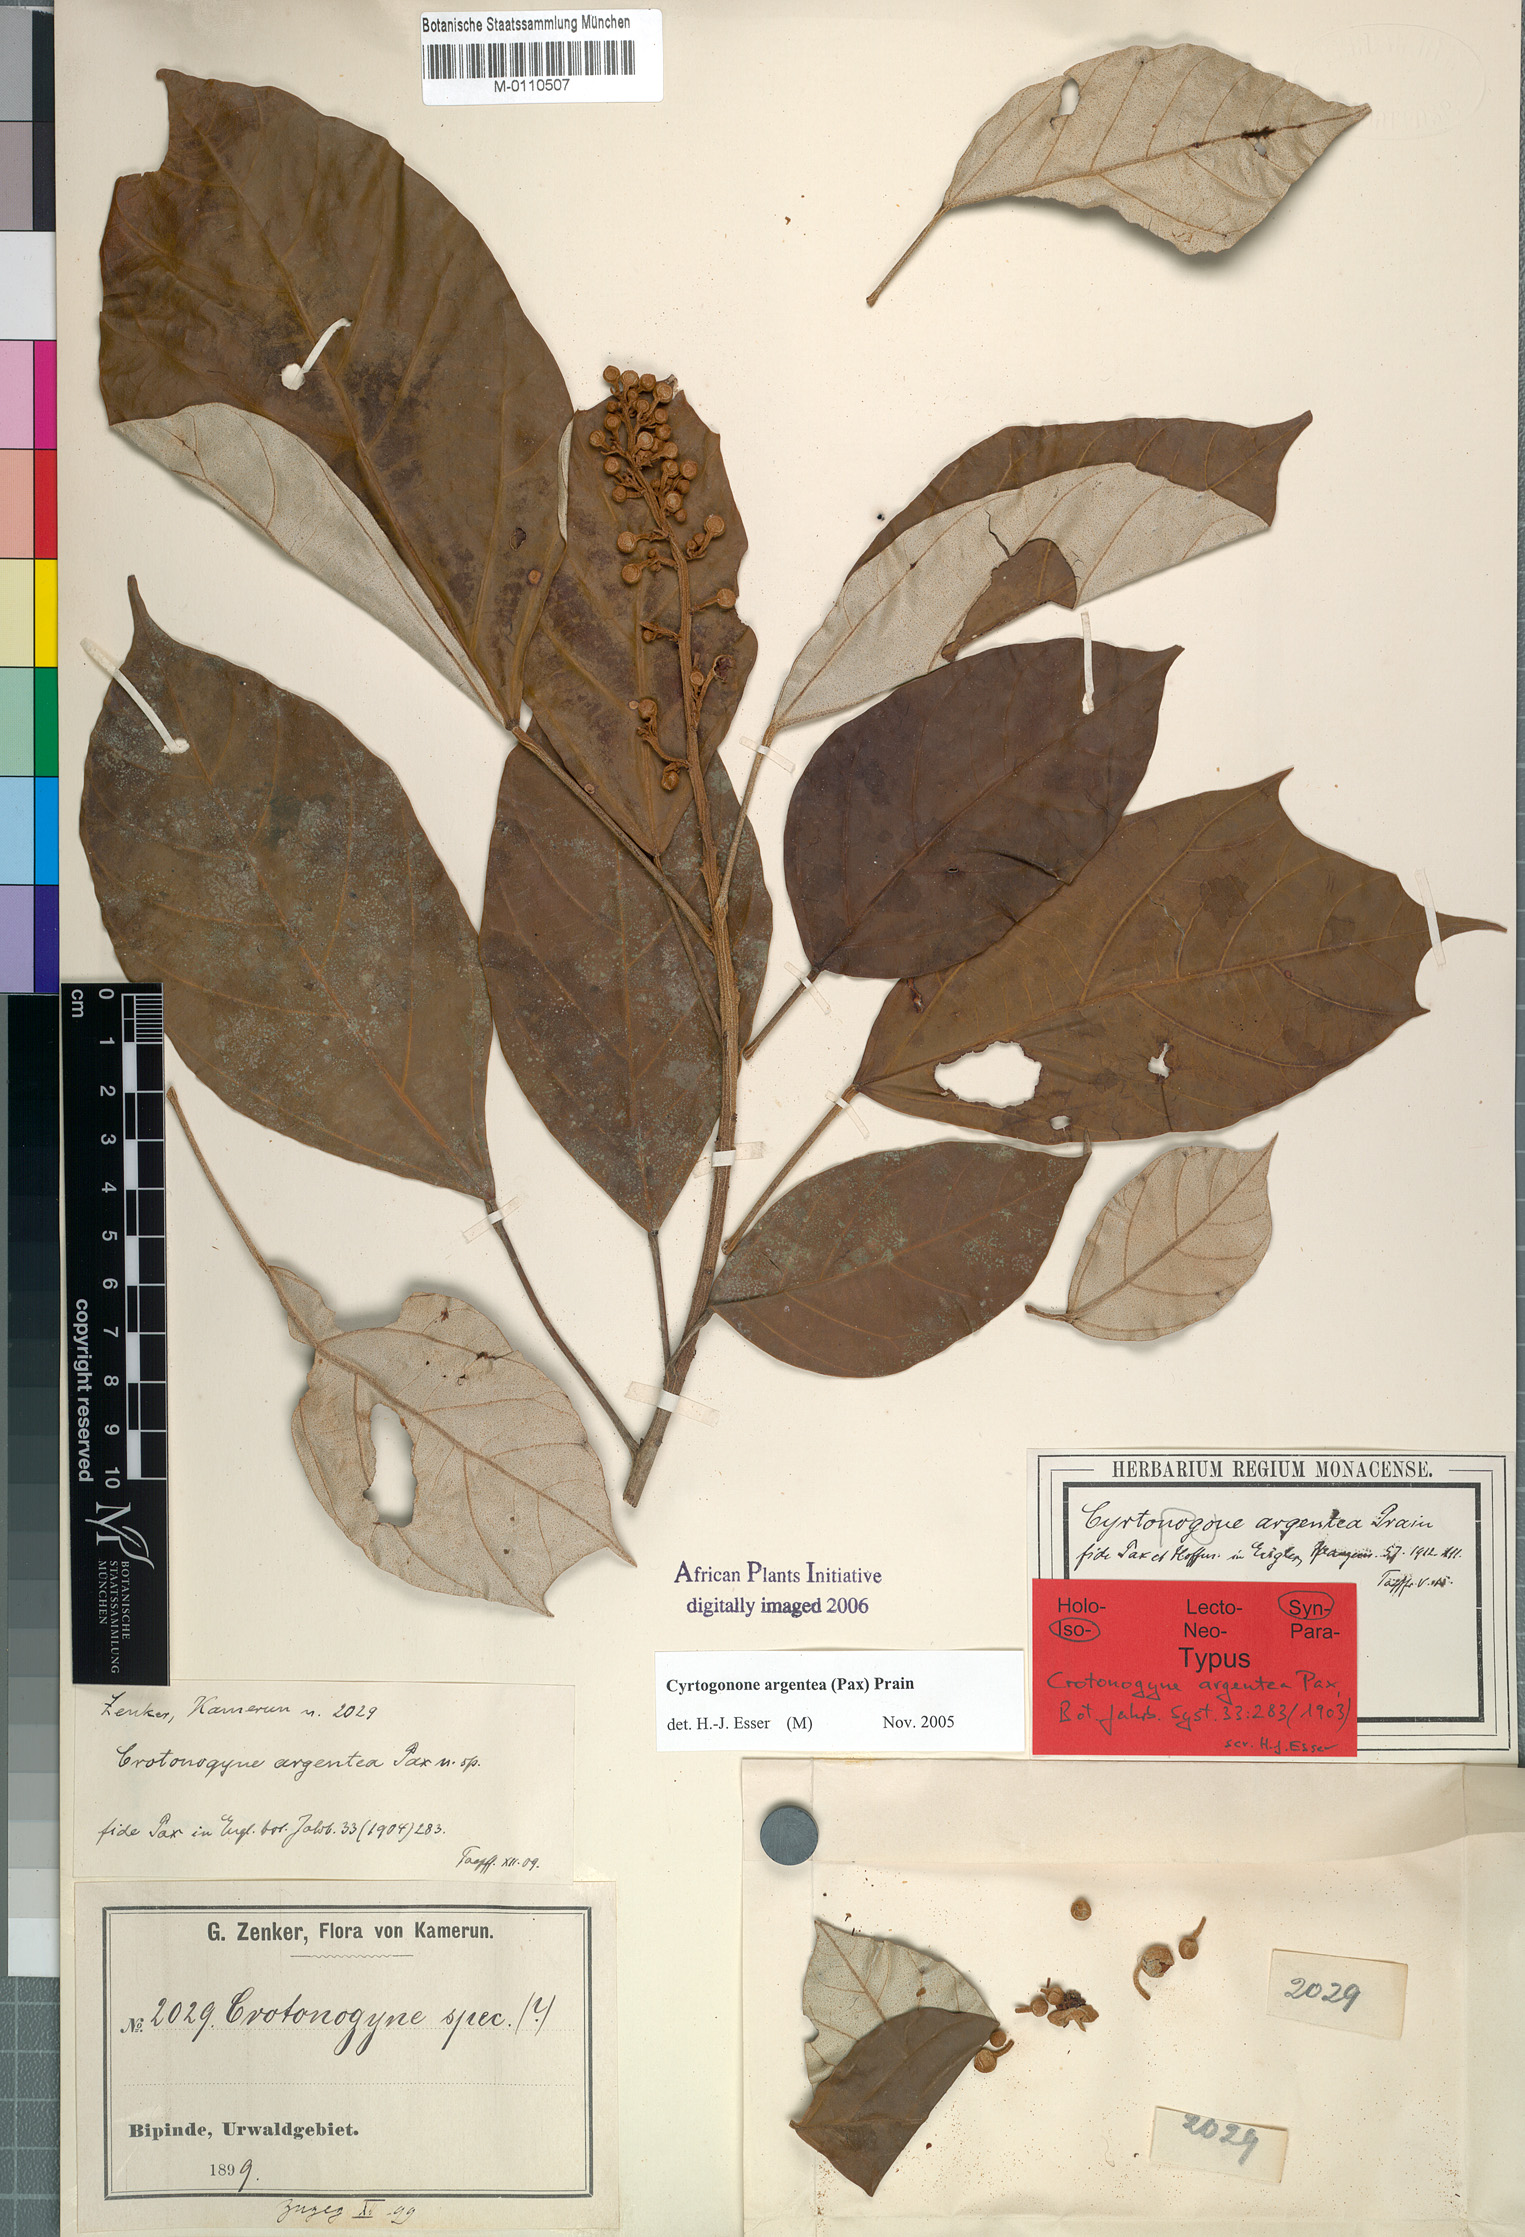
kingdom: Plantae
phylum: Tracheophyta
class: Magnoliopsida
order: Malpighiales
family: Euphorbiaceae
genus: Cyrtogonone
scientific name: Cyrtogonone argentea
